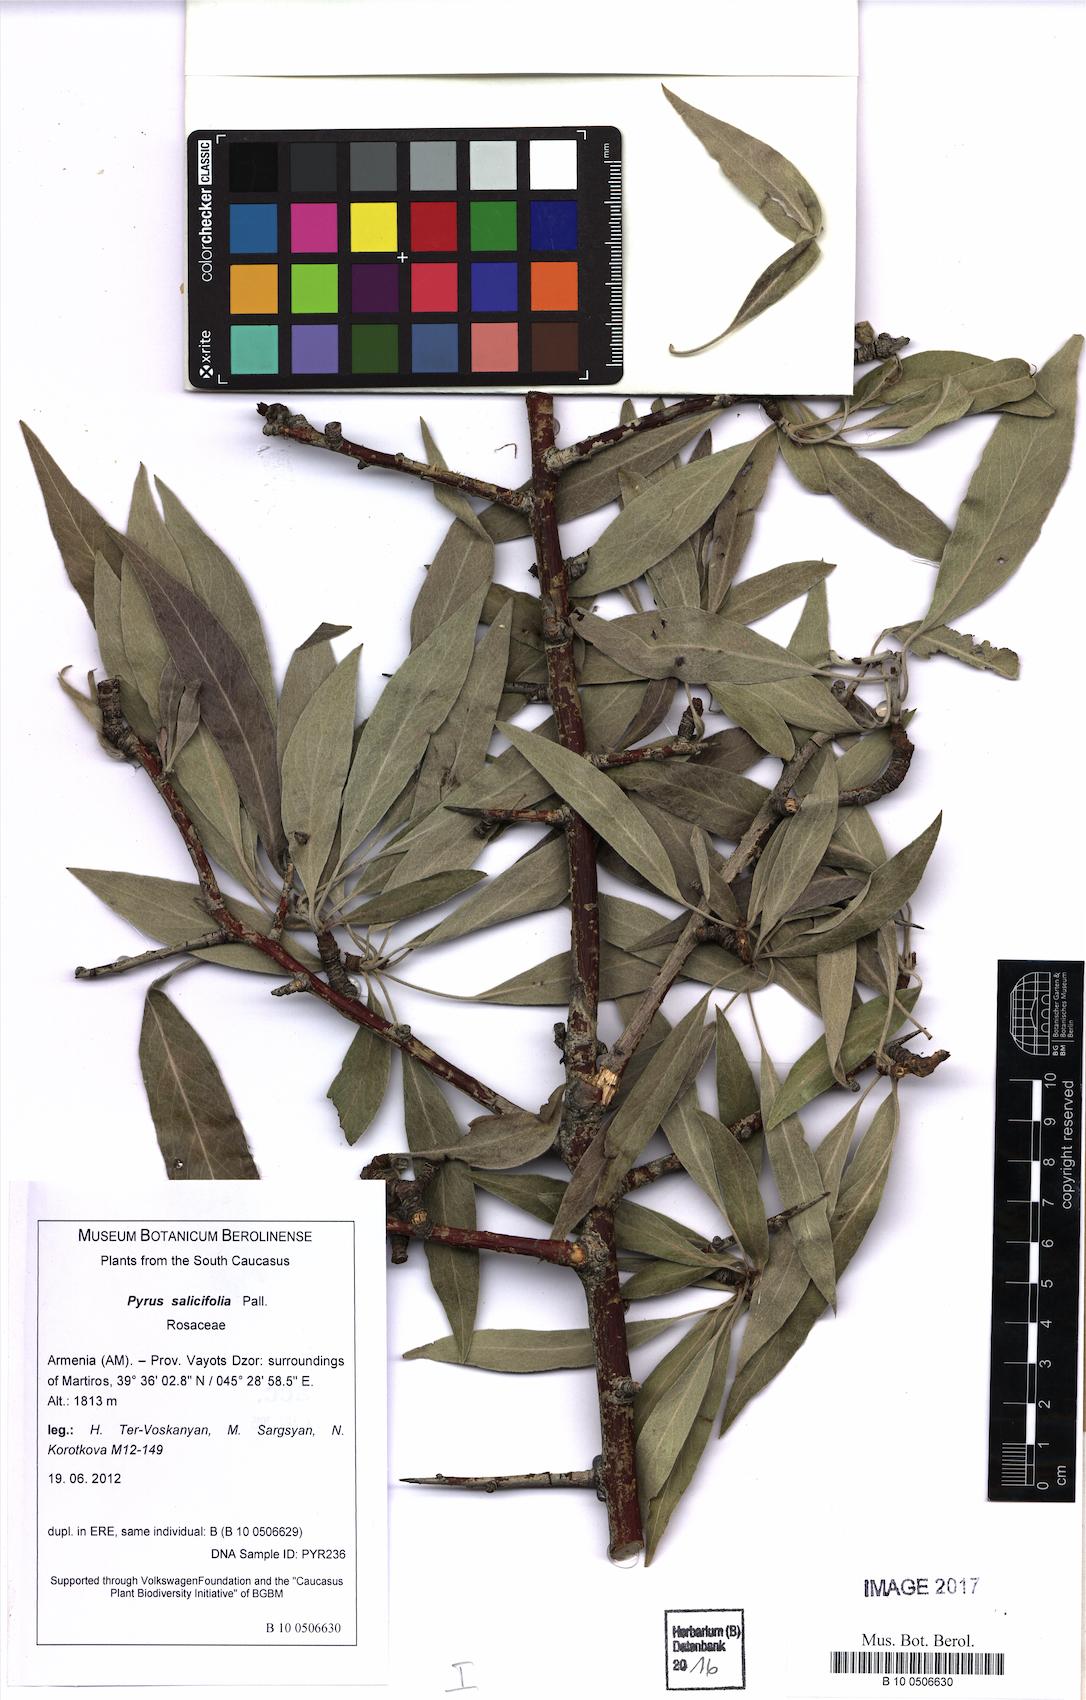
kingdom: Plantae
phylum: Tracheophyta
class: Magnoliopsida
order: Rosales
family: Rosaceae
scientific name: Rosaceae
